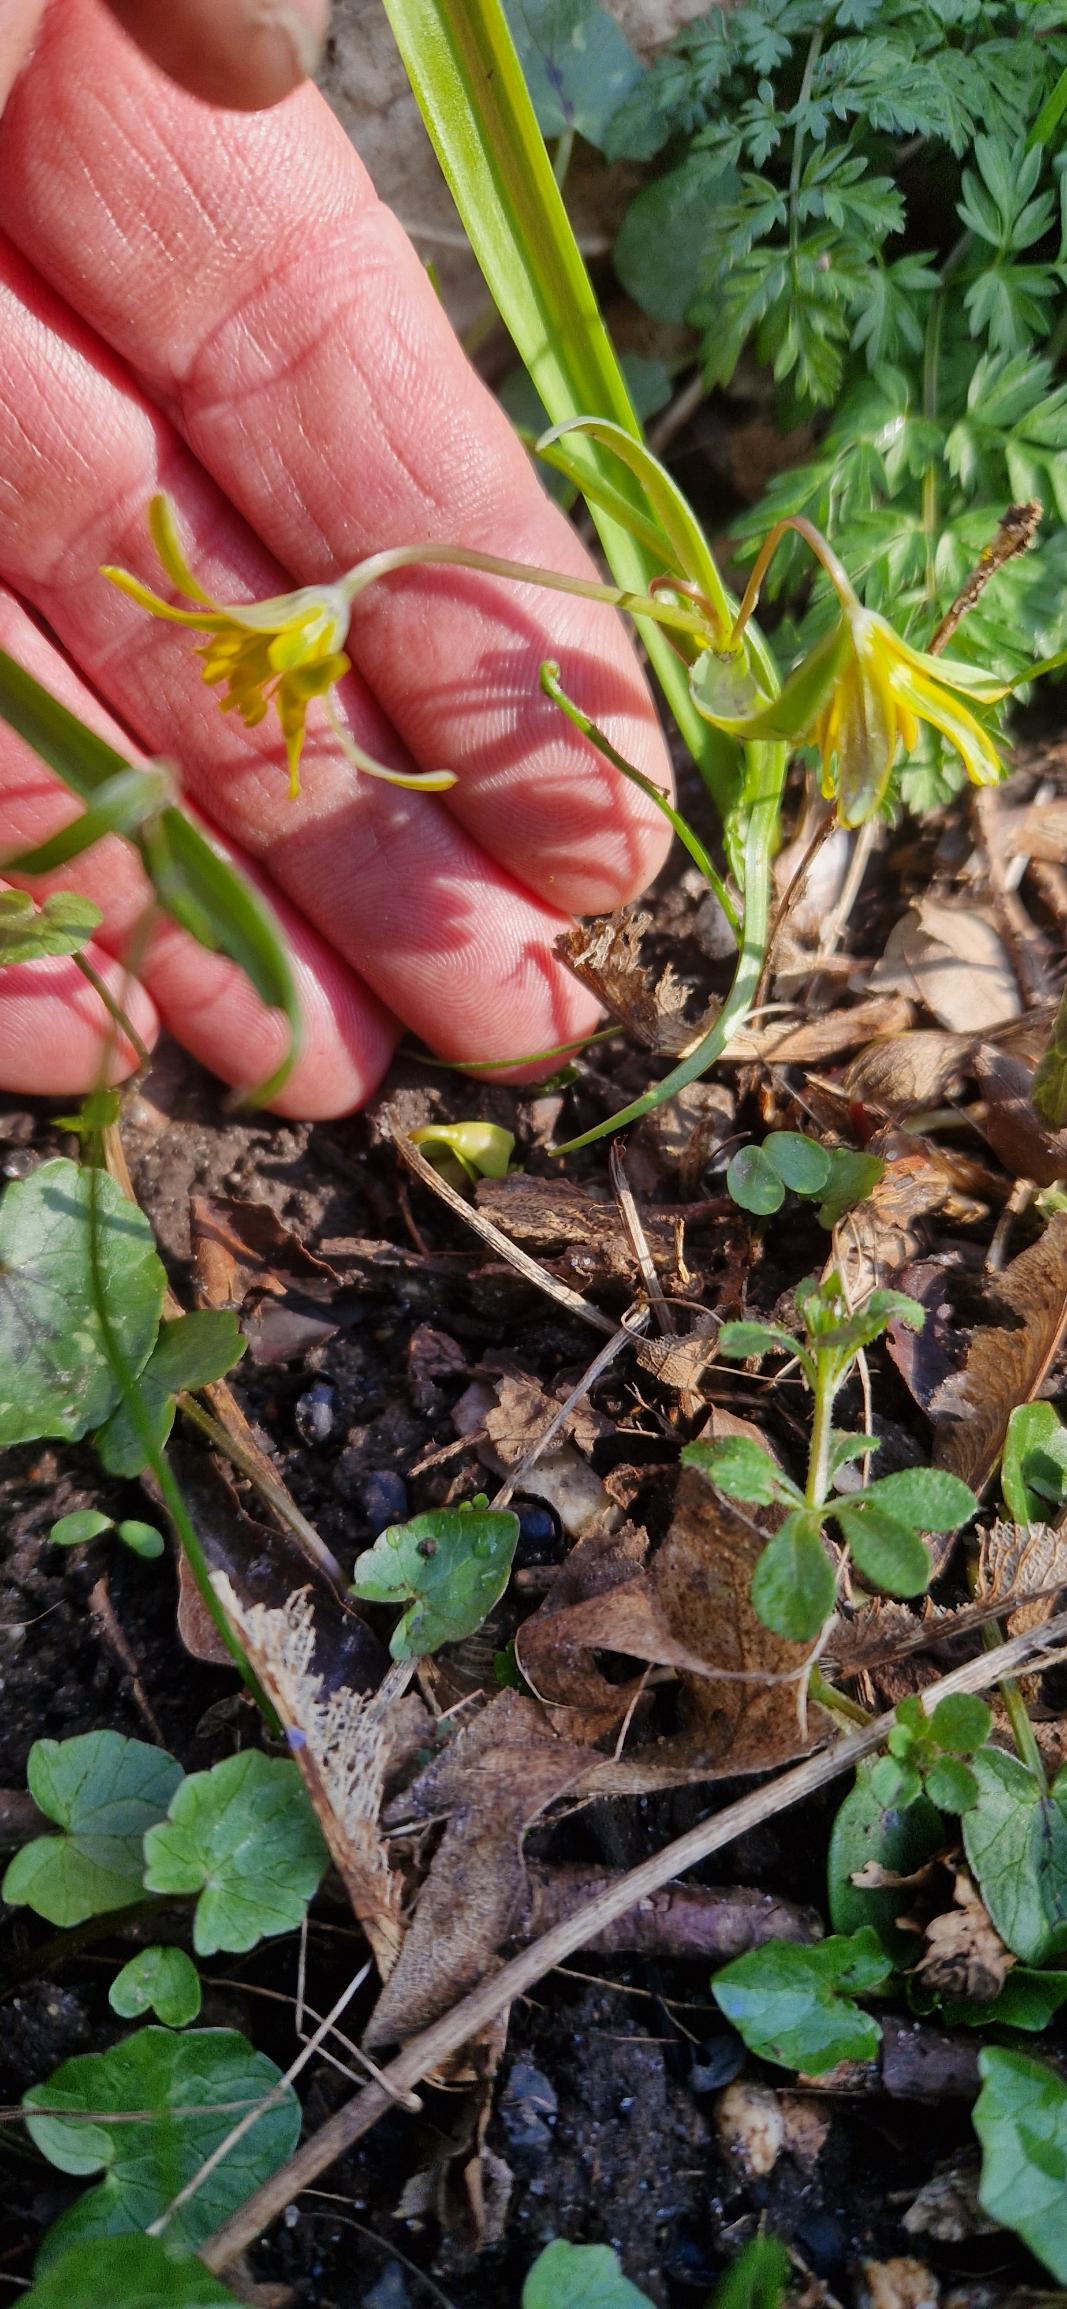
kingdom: Plantae
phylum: Tracheophyta
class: Liliopsida
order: Liliales
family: Liliaceae
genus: Gagea
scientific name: Gagea lutea
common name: Almindelig guldstjerne
